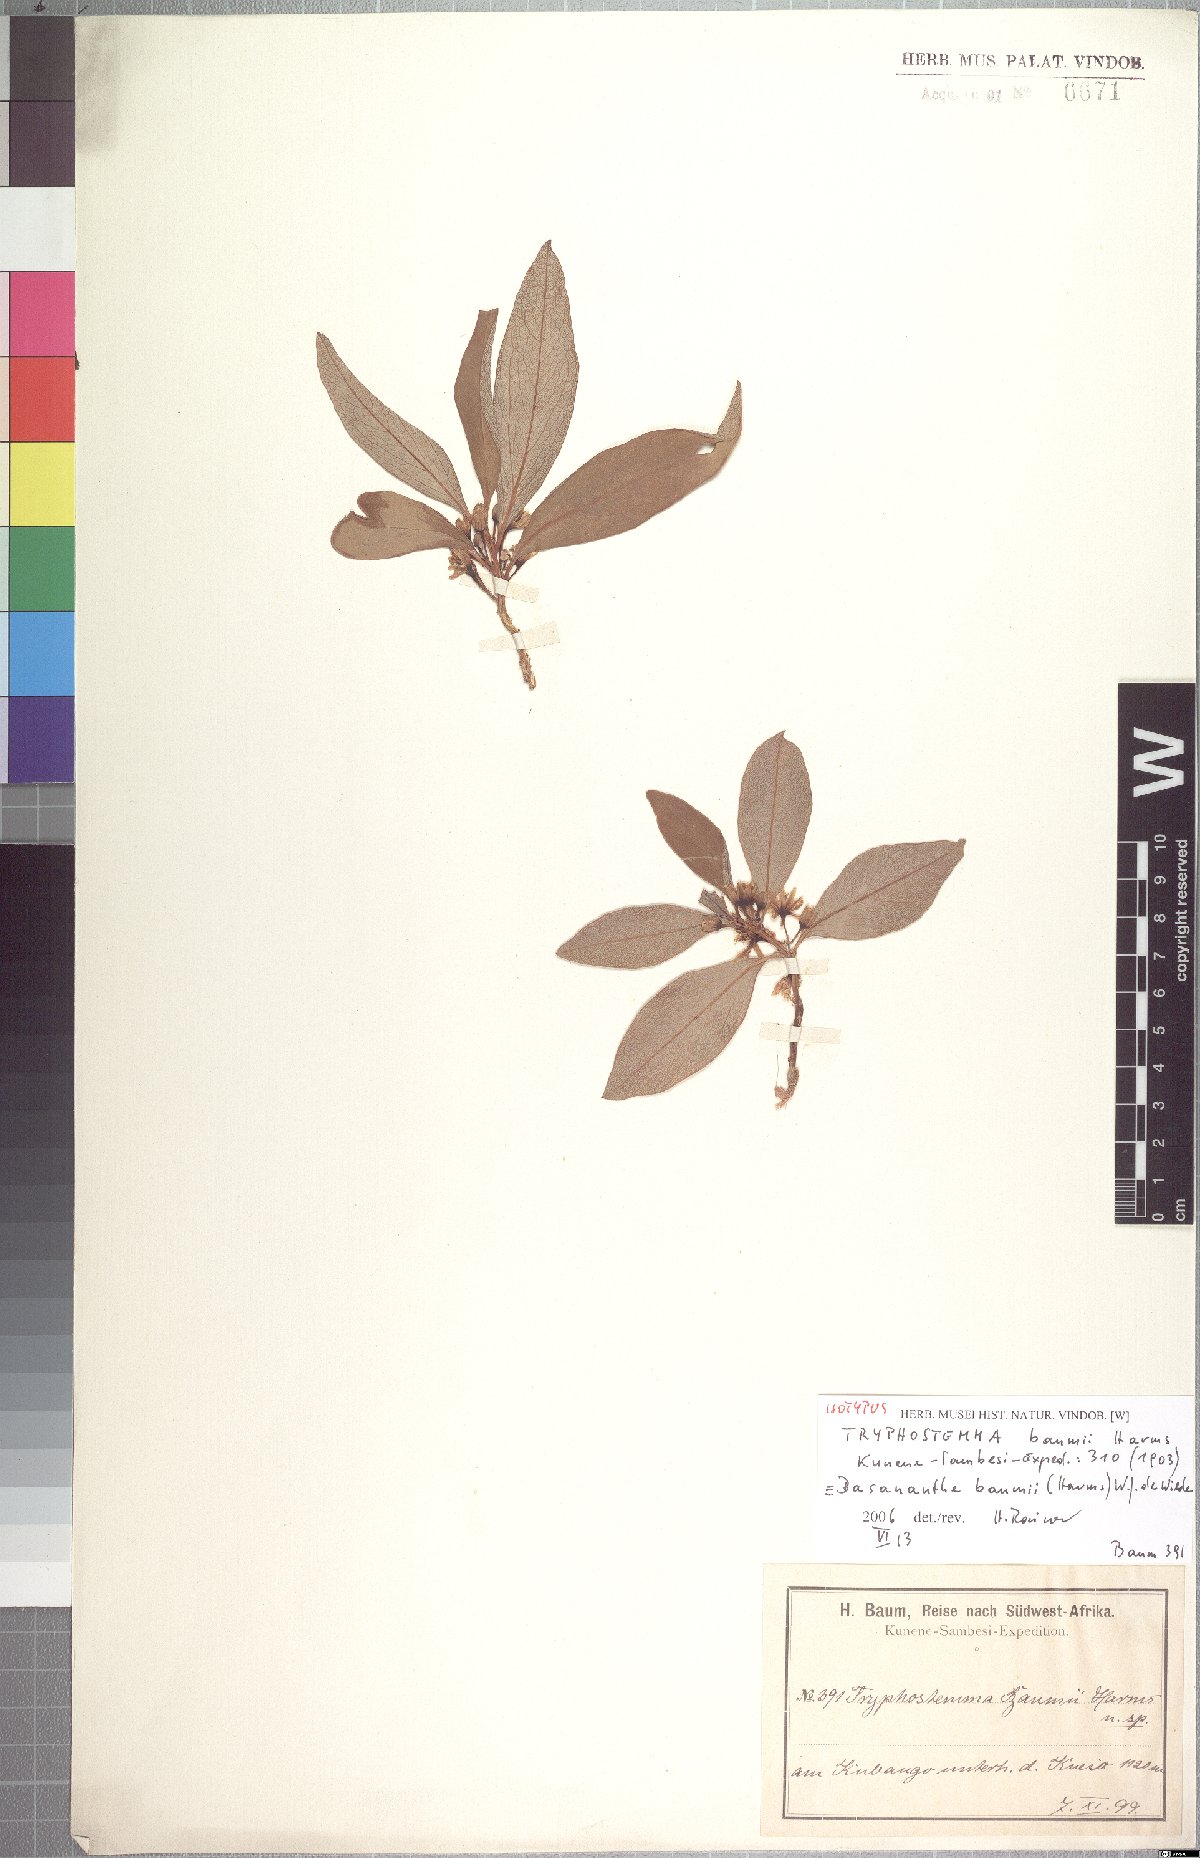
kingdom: Plantae
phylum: Tracheophyta
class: Magnoliopsida
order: Malpighiales
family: Passifloraceae
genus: Basananthe
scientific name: Basananthe baumii
